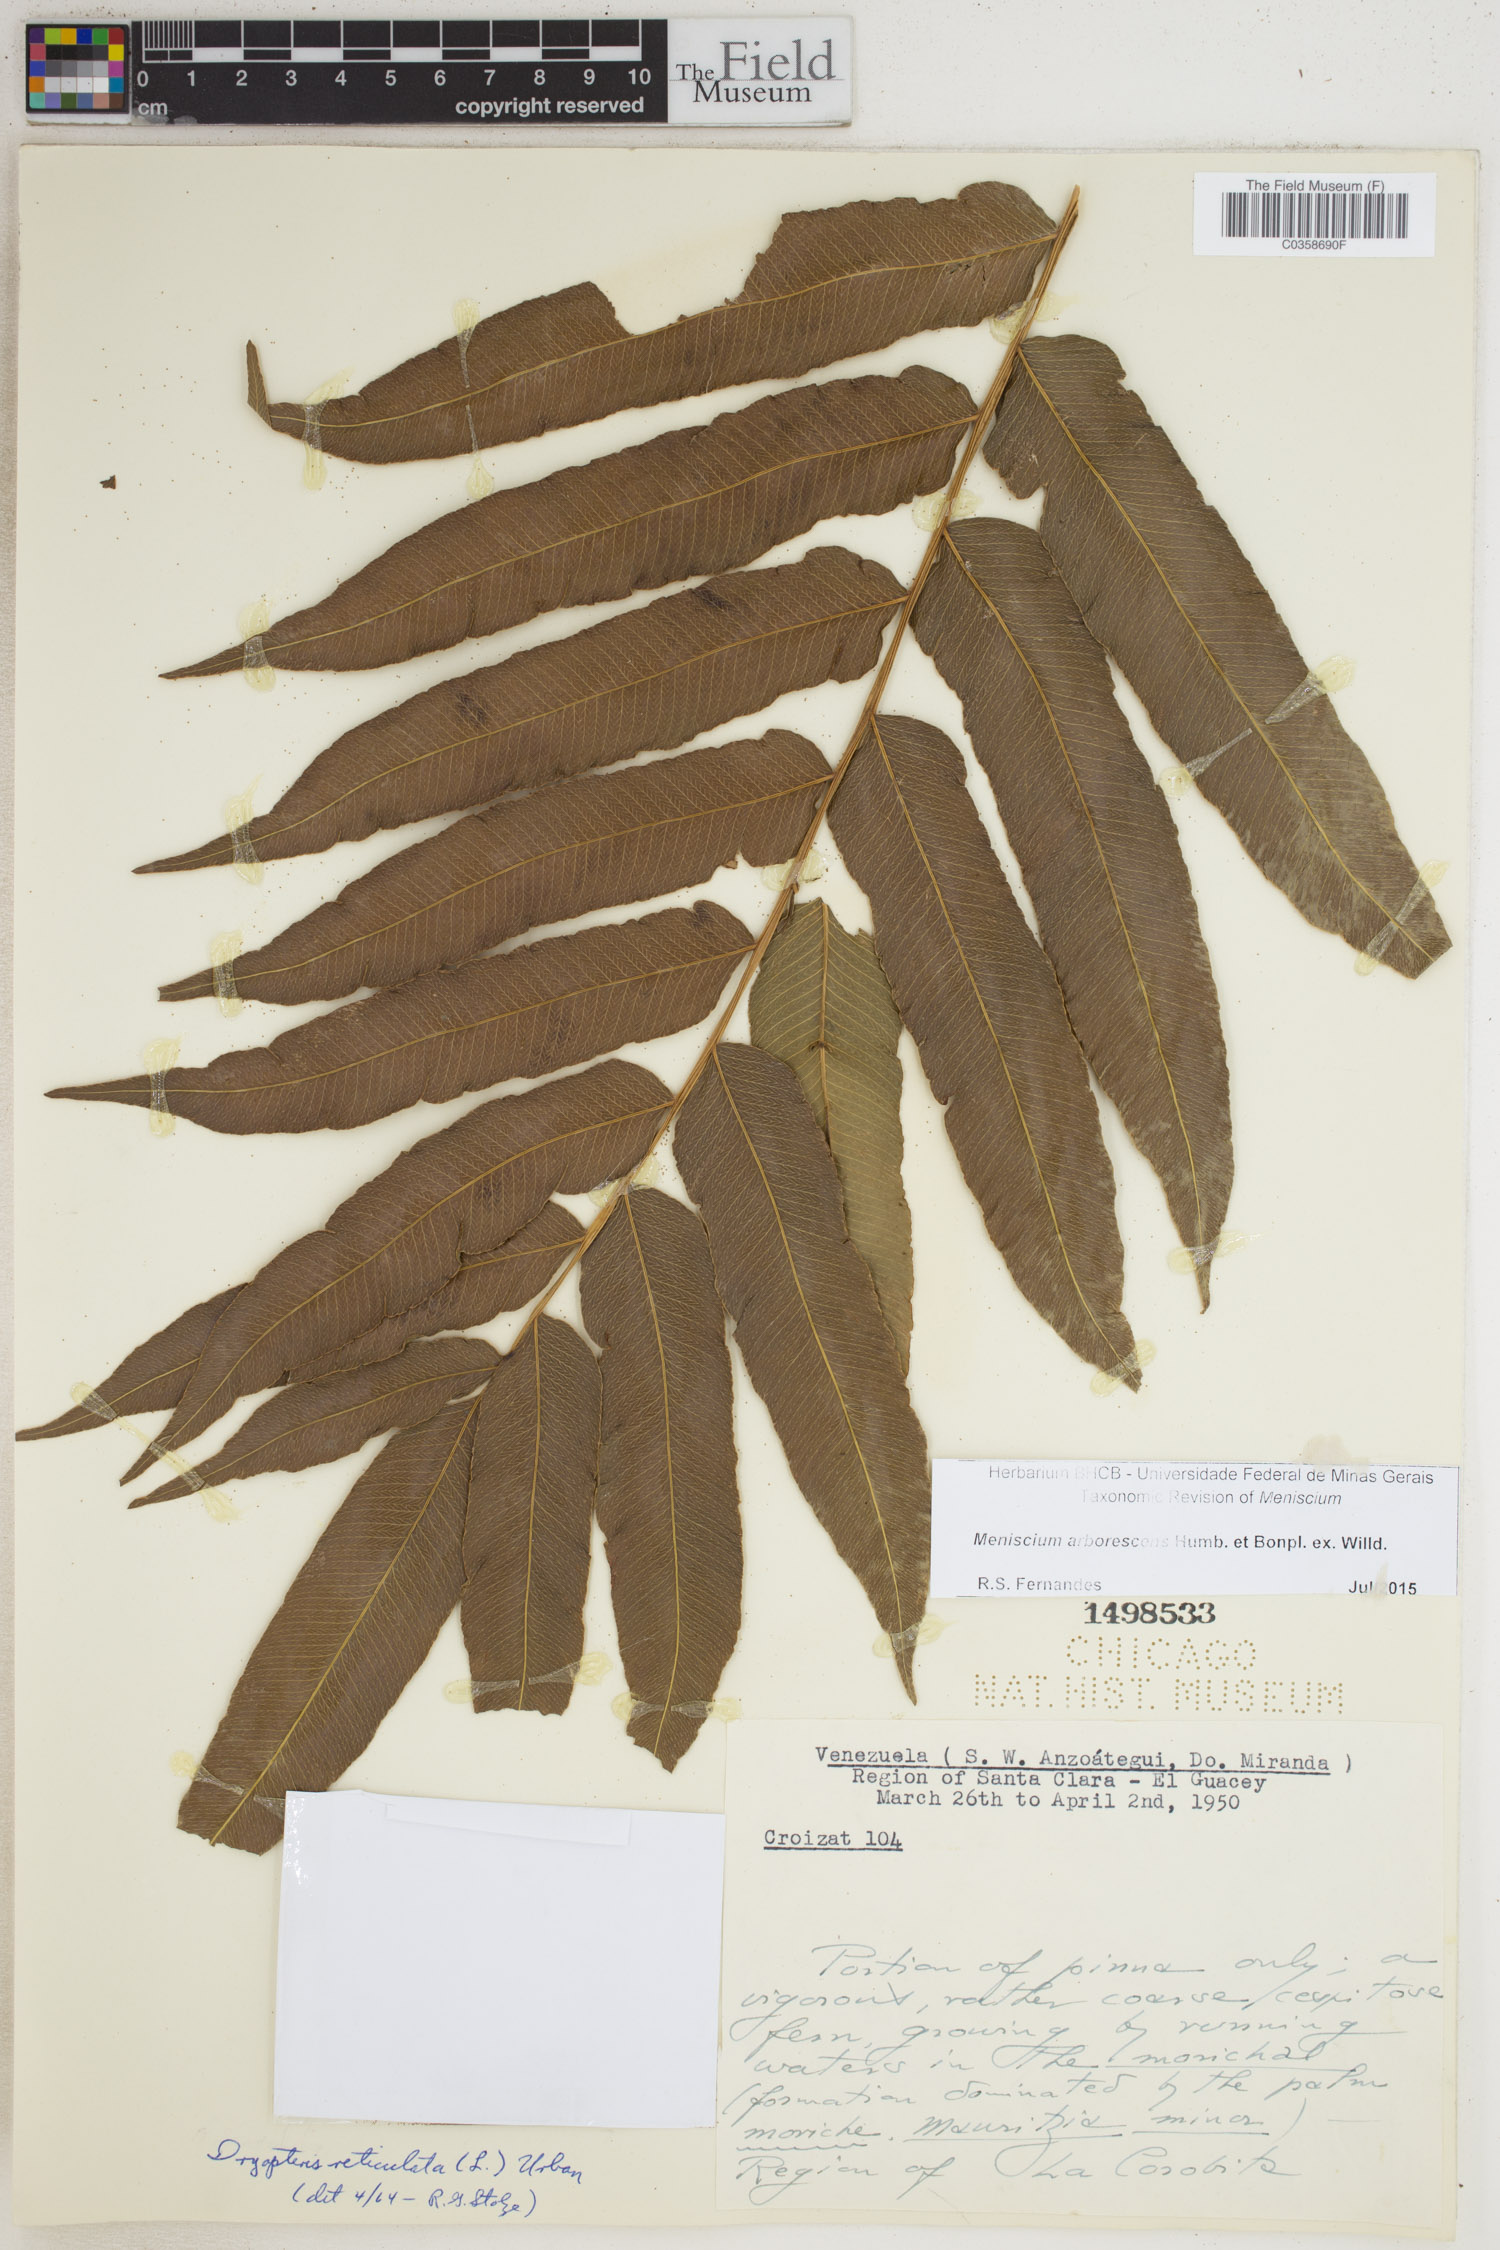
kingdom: Plantae
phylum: Tracheophyta
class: Polypodiopsida
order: Polypodiales
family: Thelypteridaceae
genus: Meniscium
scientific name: Meniscium arborescens
